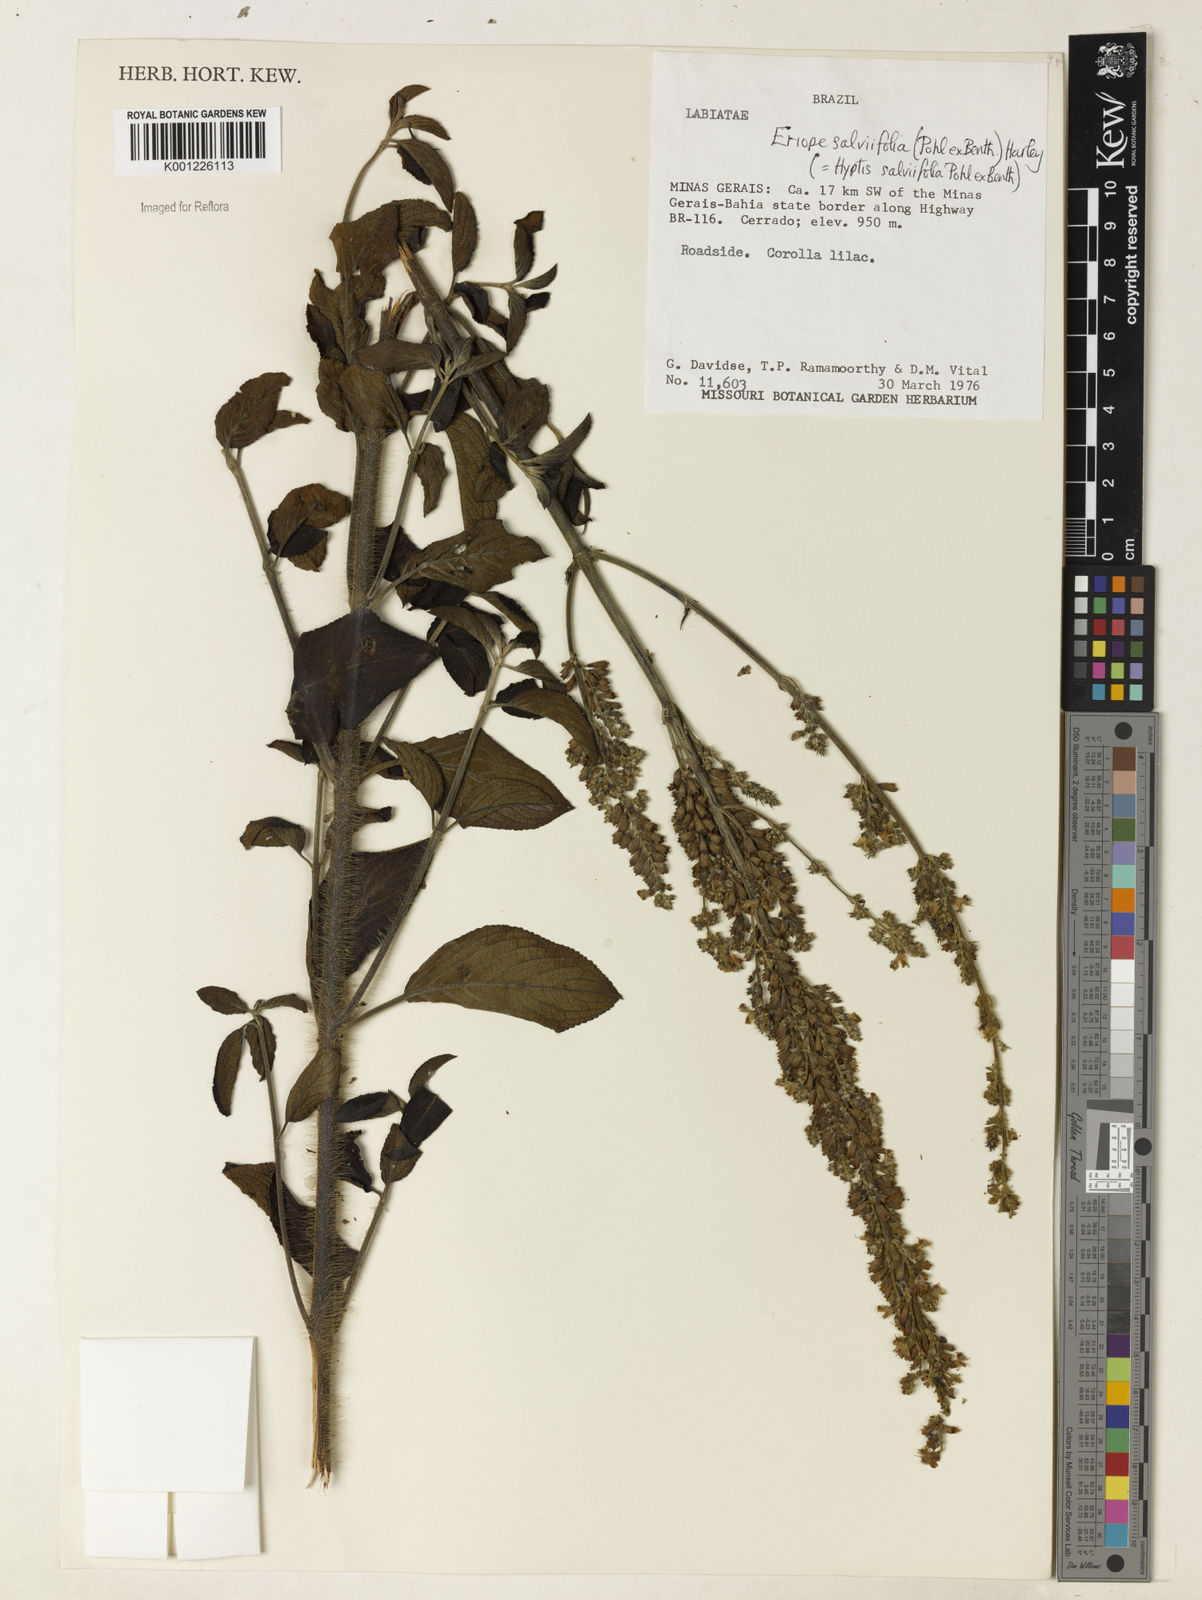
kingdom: Plantae
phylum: Tracheophyta
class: Magnoliopsida
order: Lamiales
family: Lamiaceae
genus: Eriope
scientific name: Eriope salviifolia
